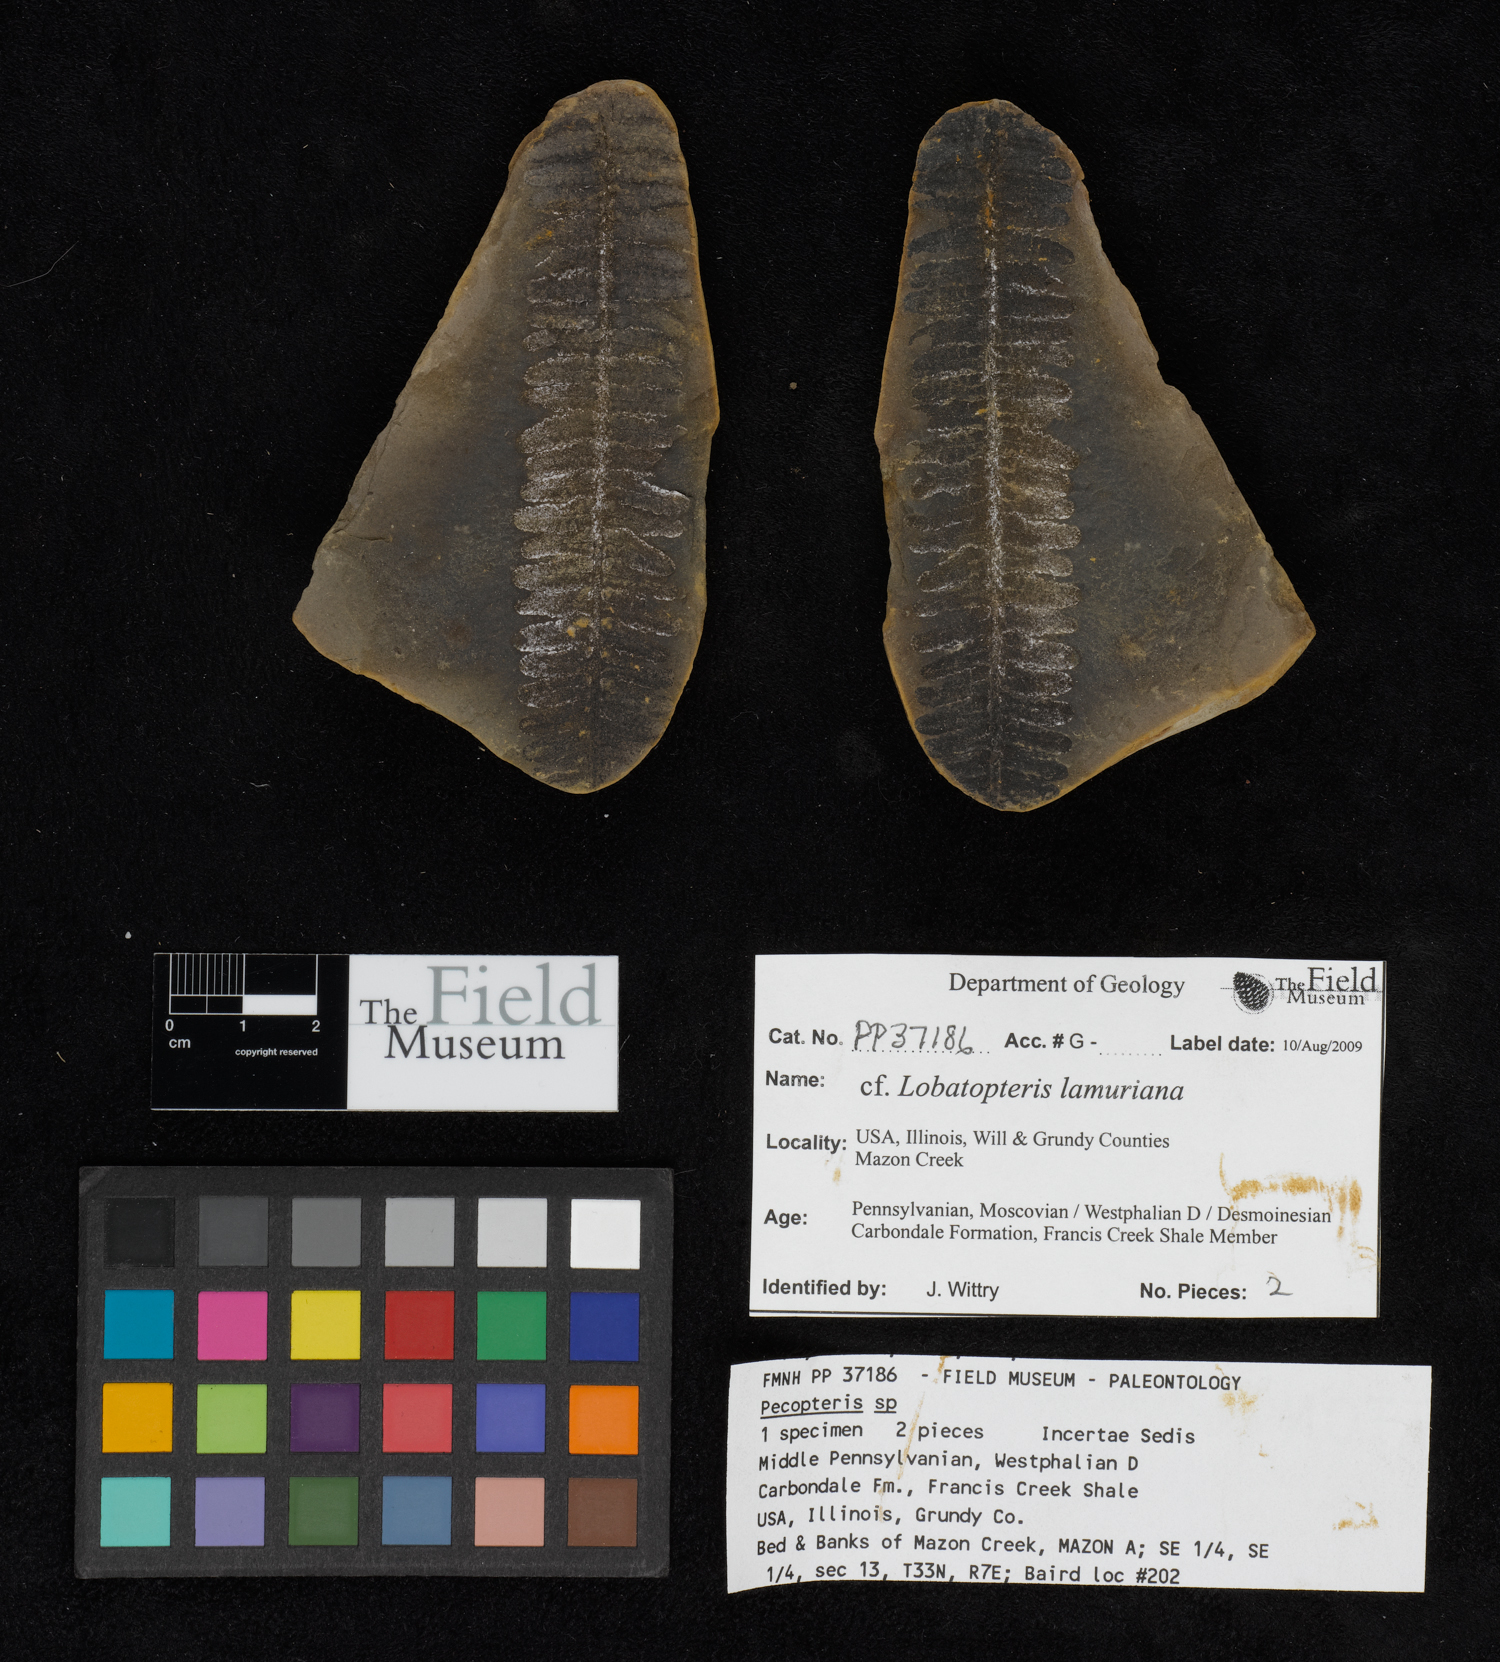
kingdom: Plantae
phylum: Tracheophyta
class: Polypodiopsida
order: Marattiales
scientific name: Marattiales
